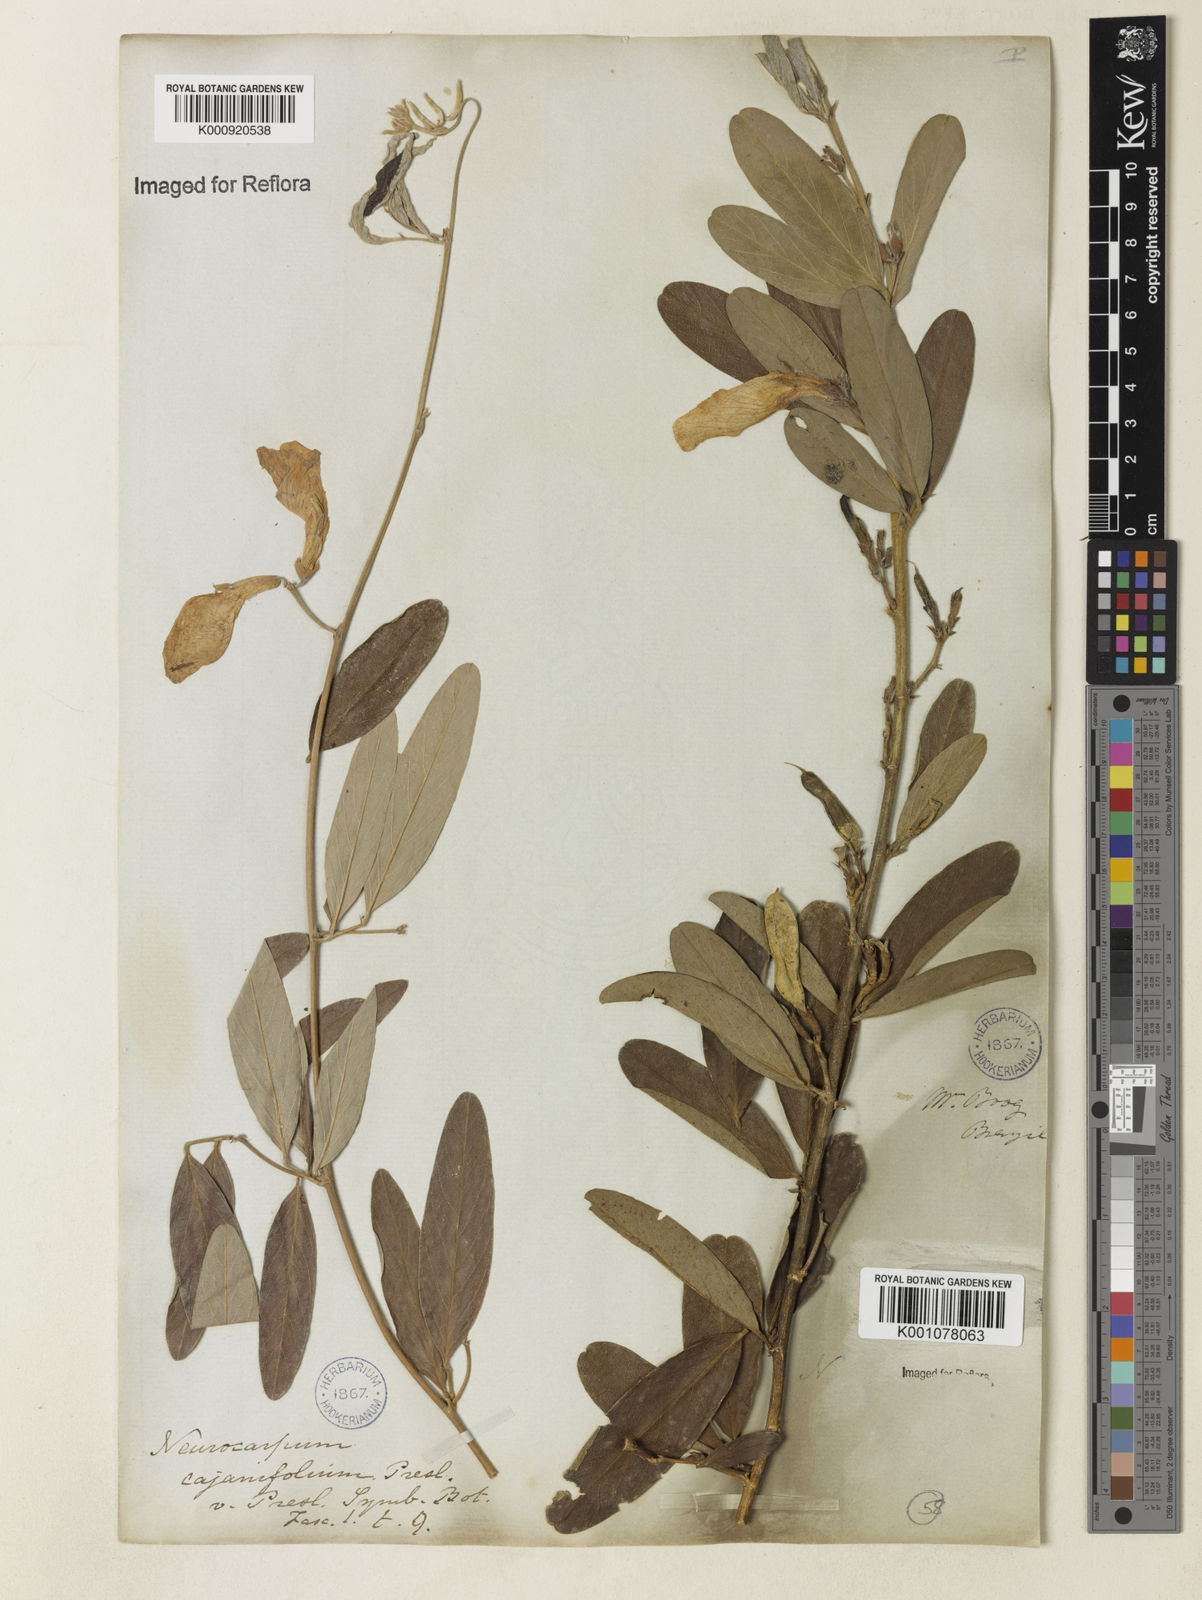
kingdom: Plantae
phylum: Tracheophyta
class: Magnoliopsida
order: Fabales
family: Fabaceae
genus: Clitoria
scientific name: Clitoria laurifolia
